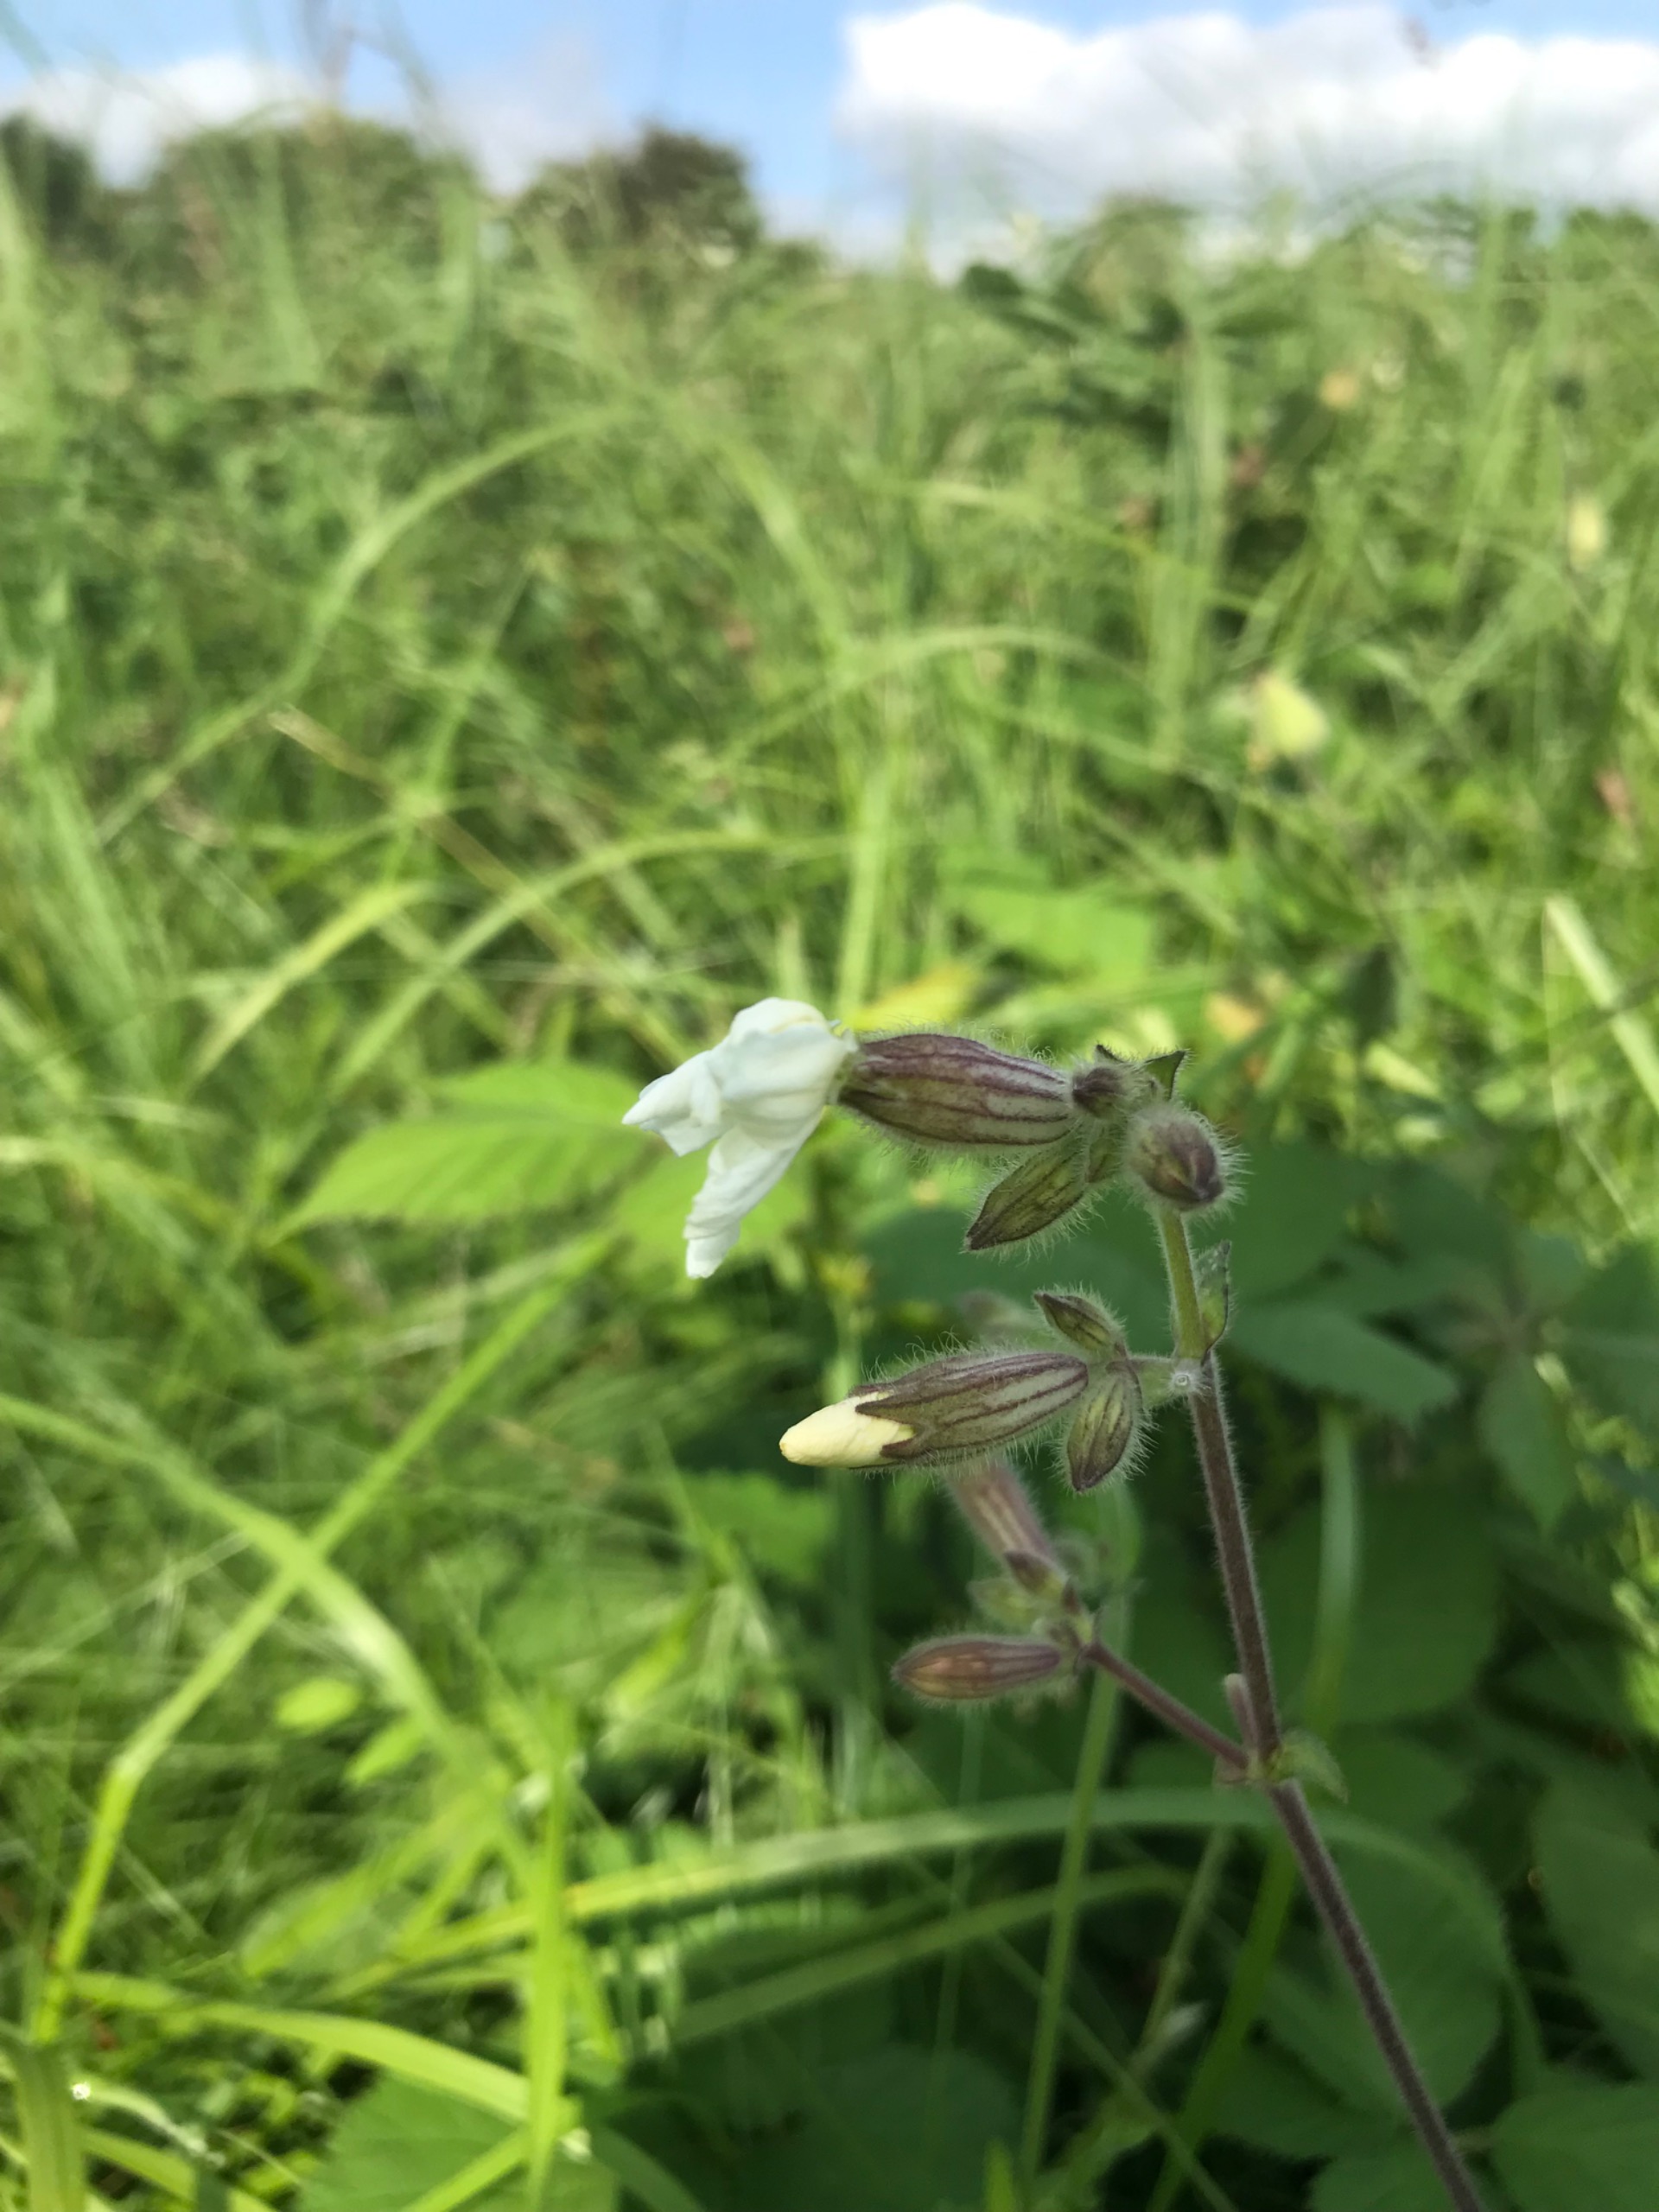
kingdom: Plantae
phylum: Tracheophyta
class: Magnoliopsida
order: Caryophyllales
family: Caryophyllaceae
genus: Silene
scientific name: Silene latifolia
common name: Aftenpragtstjerne
